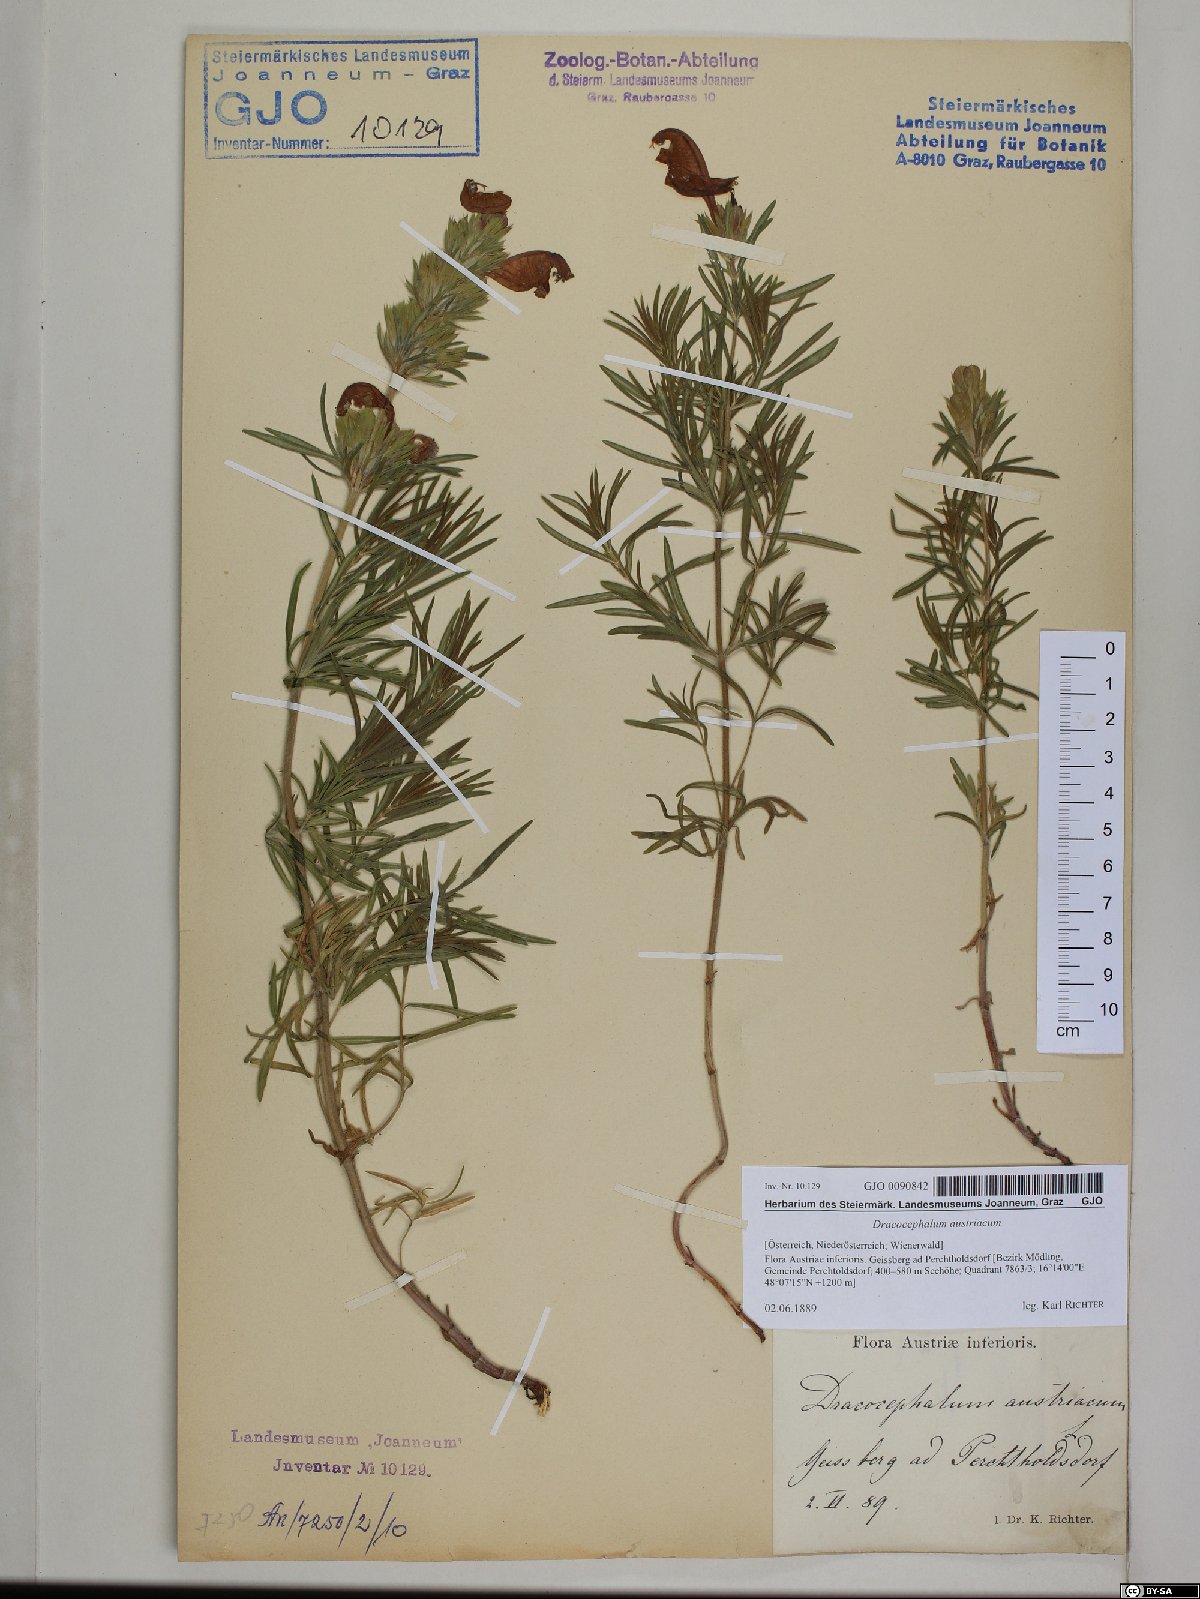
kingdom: Plantae
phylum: Tracheophyta
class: Magnoliopsida
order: Lamiales
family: Lamiaceae
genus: Dracocephalum
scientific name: Dracocephalum austriacum
